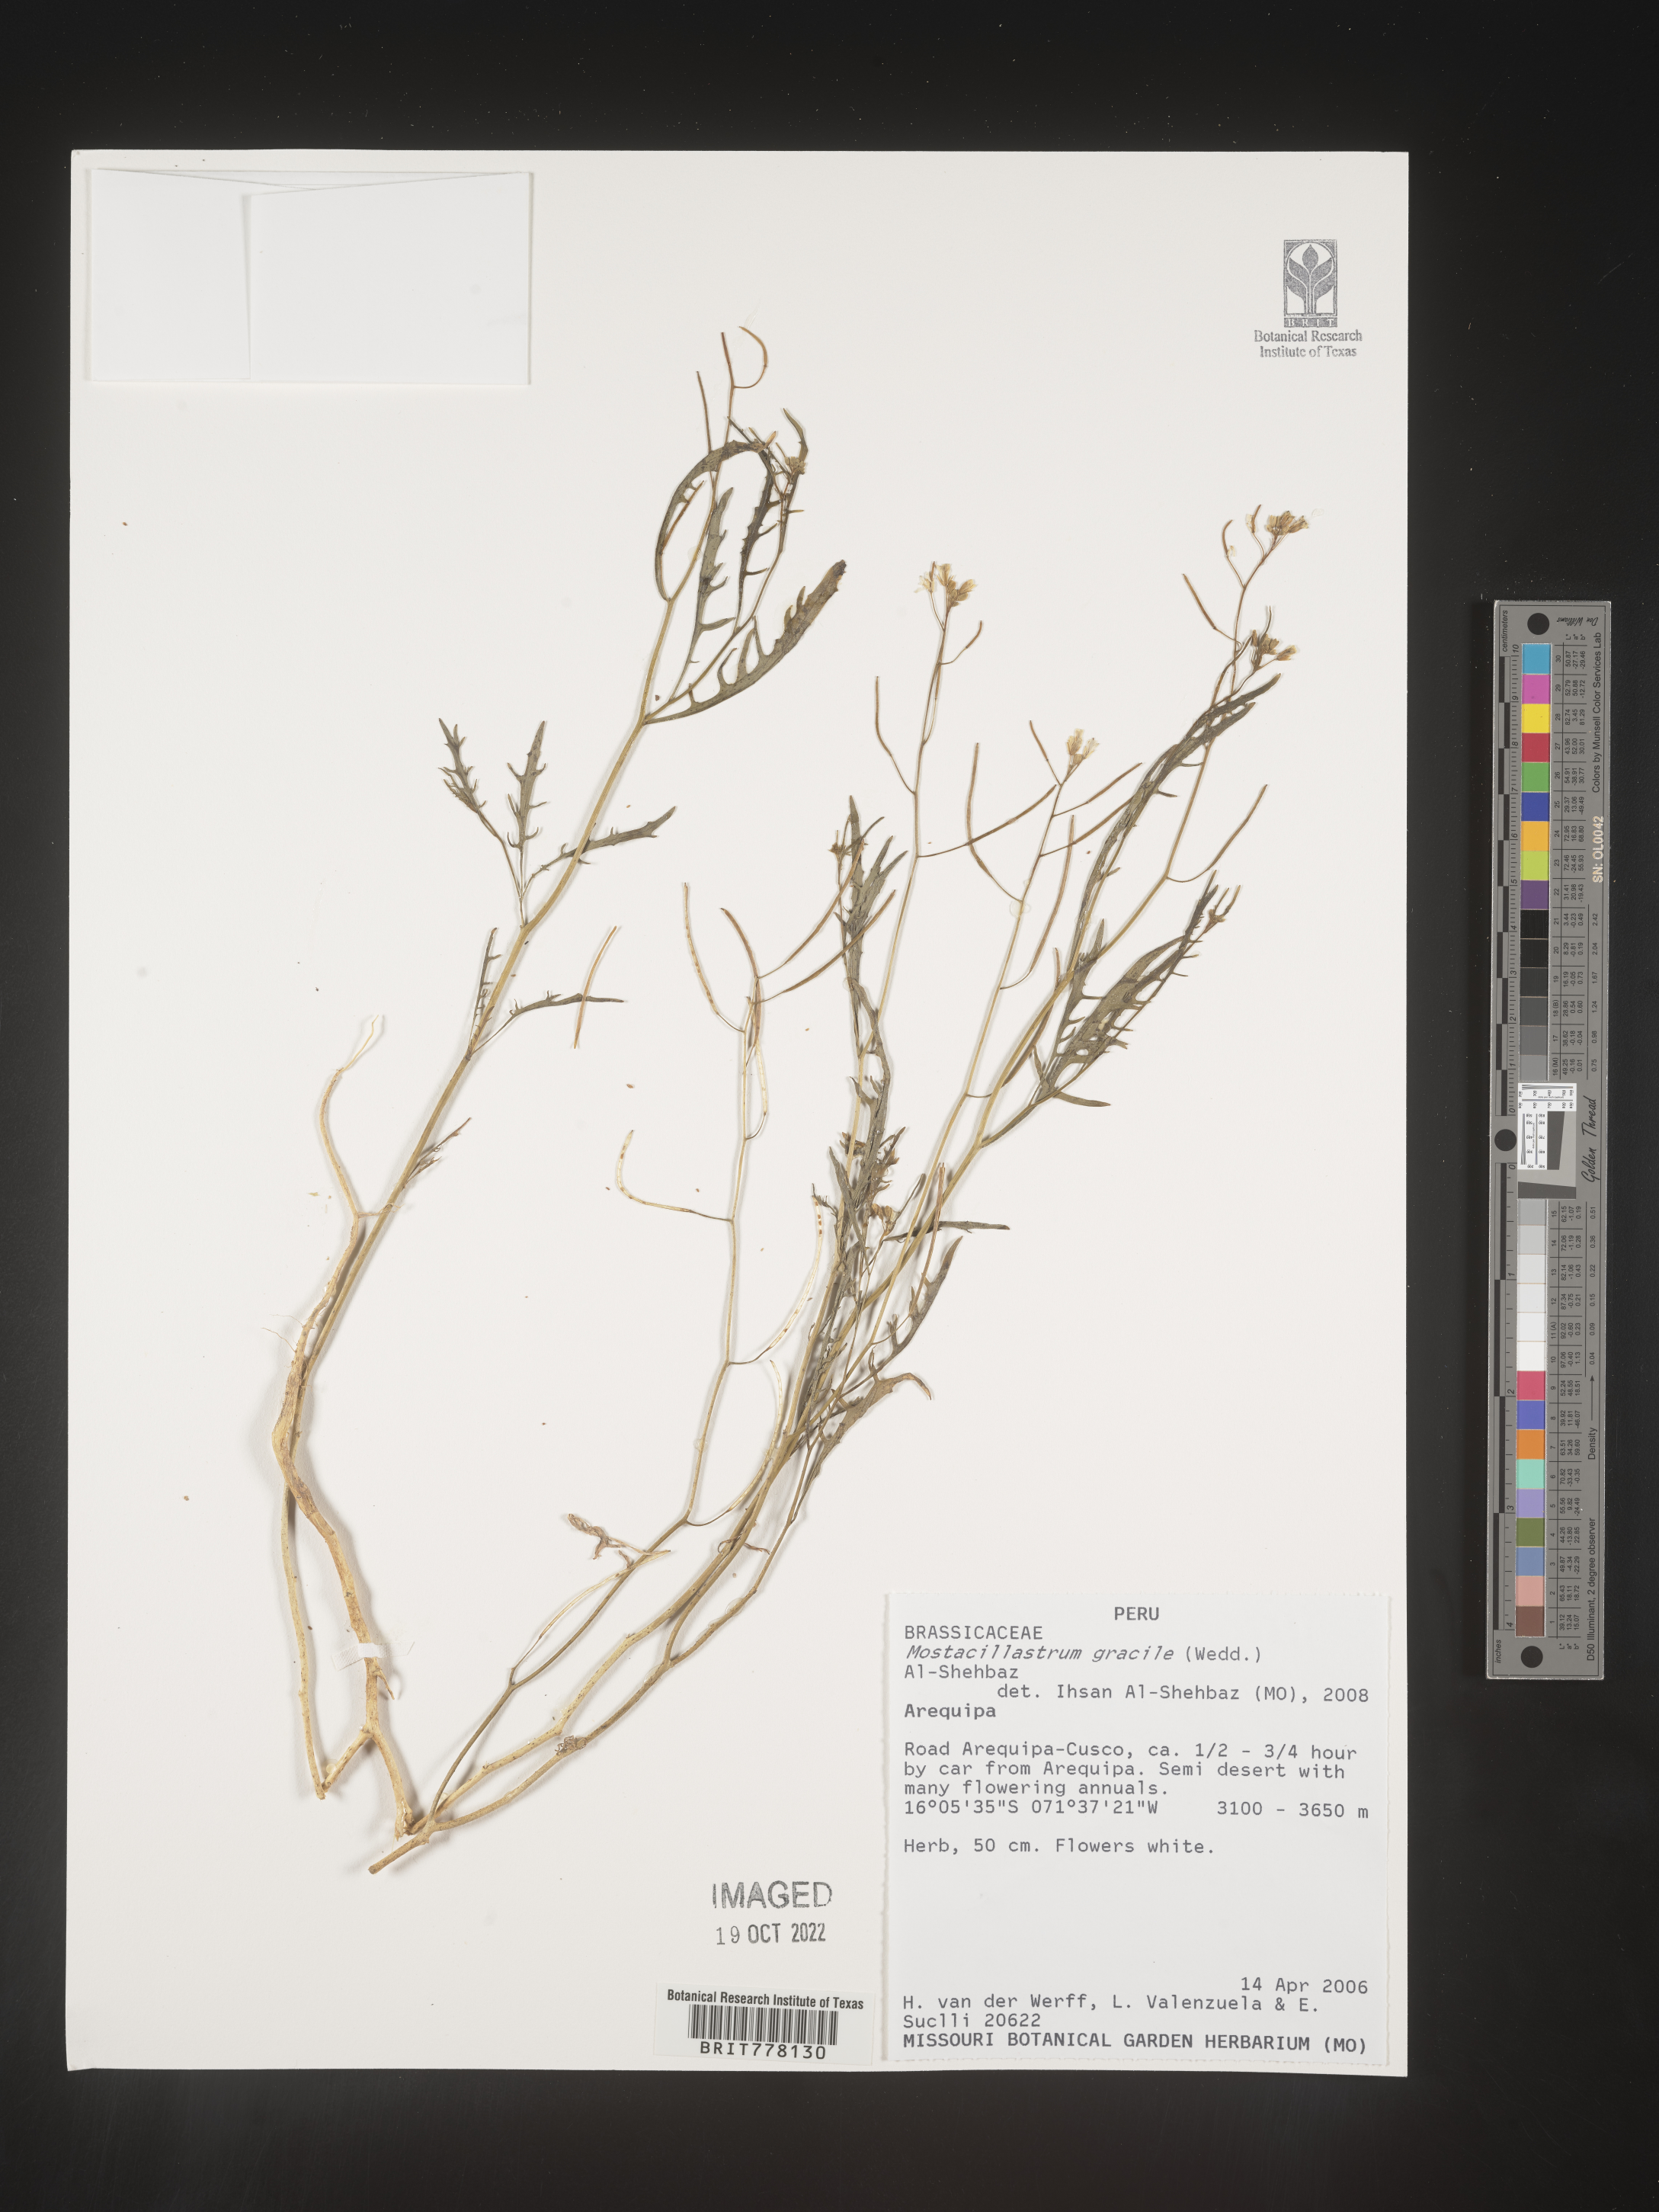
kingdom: Plantae
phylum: Tracheophyta
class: Magnoliopsida
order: Brassicales
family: Brassicaceae
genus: Mostacillastrum
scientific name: Mostacillastrum
